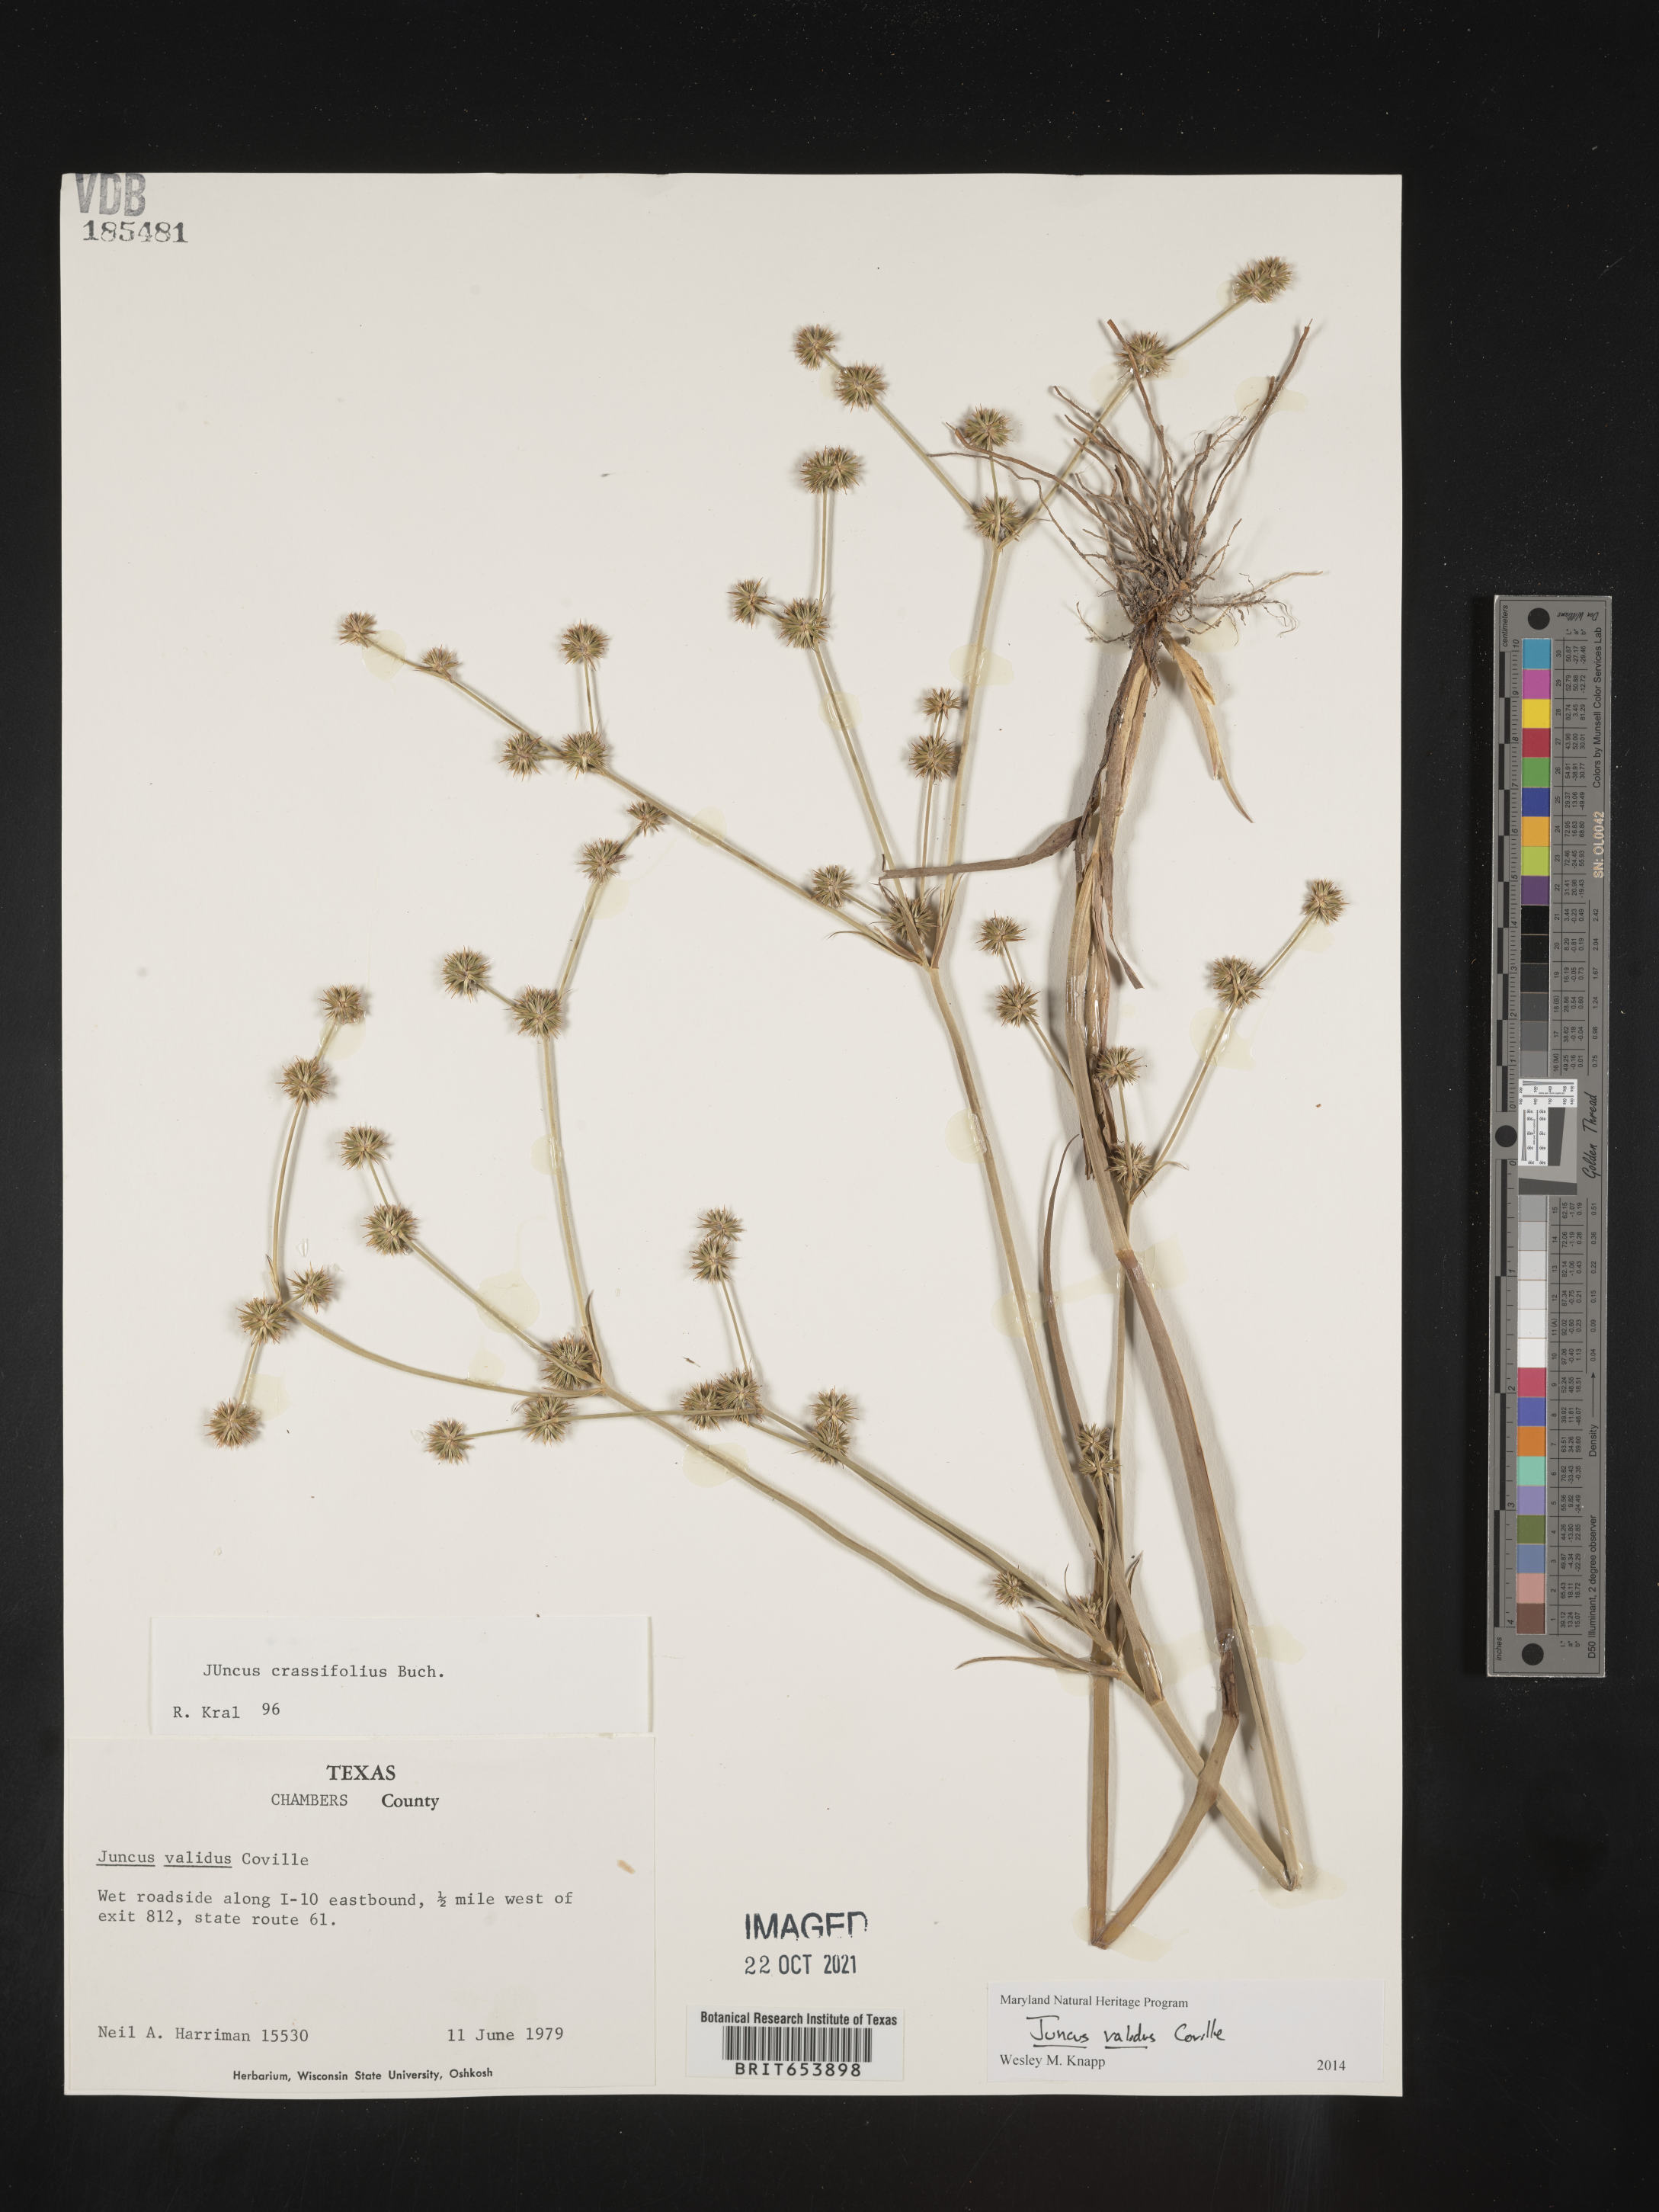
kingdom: Plantae
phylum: Tracheophyta
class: Liliopsida
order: Poales
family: Juncaceae
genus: Juncus
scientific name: Juncus validus
